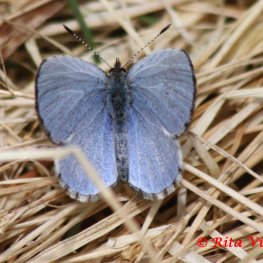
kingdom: Animalia
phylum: Arthropoda
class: Insecta
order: Lepidoptera
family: Lycaenidae
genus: Celastrina
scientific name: Celastrina lucia
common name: Northern Spring Azure
